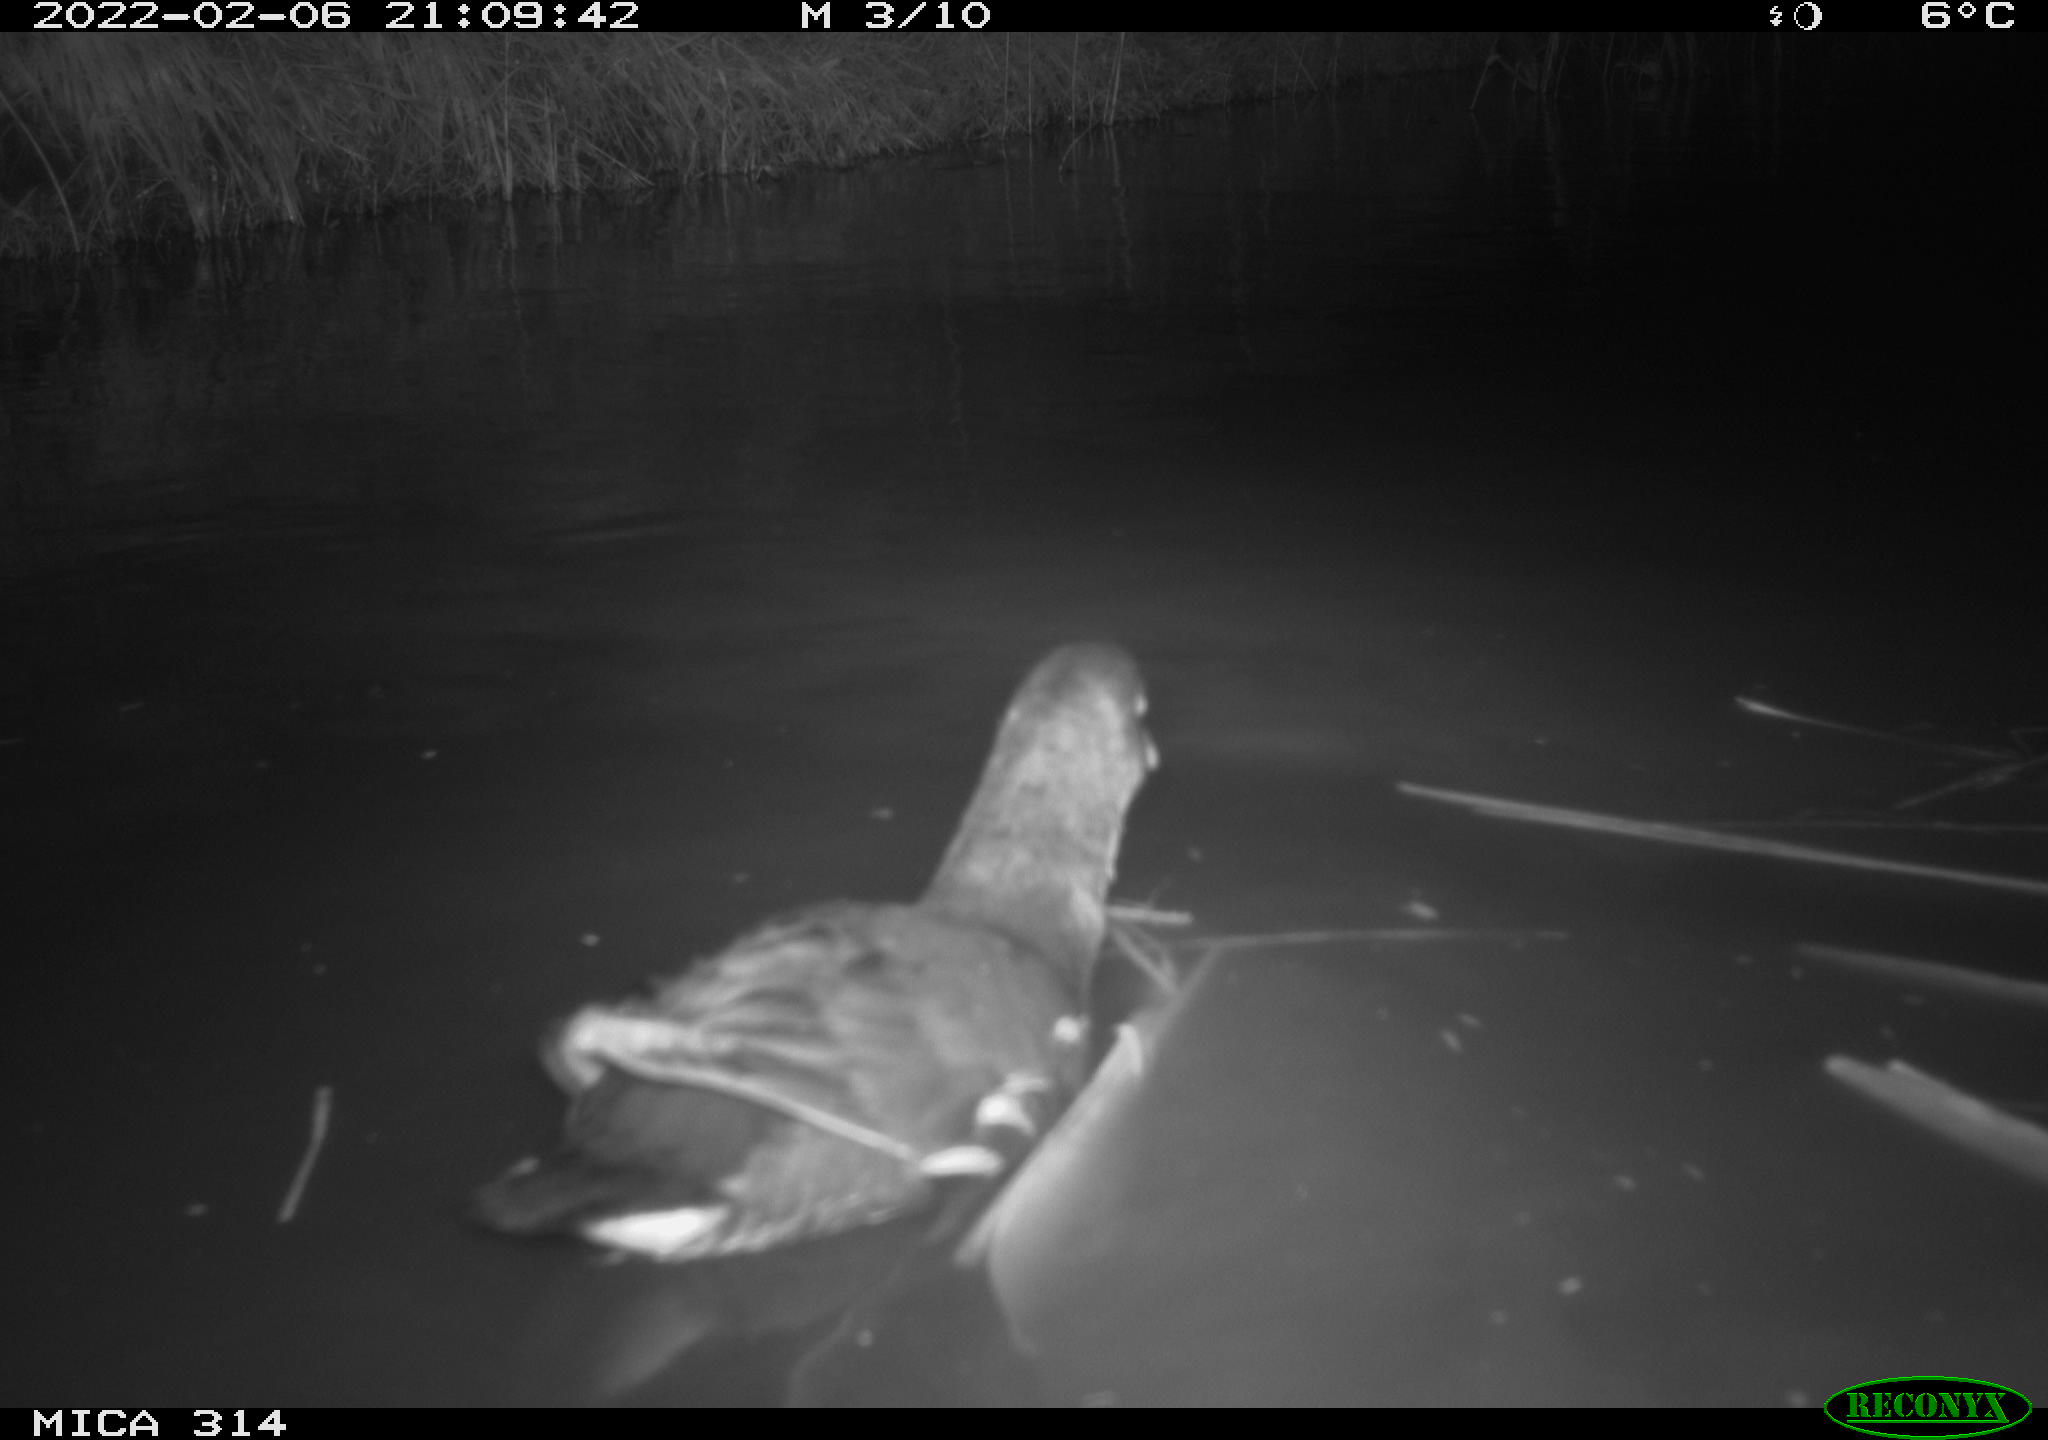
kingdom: Animalia
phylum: Chordata
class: Aves
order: Gruiformes
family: Rallidae
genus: Gallinula
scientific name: Gallinula chloropus
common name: Common moorhen
